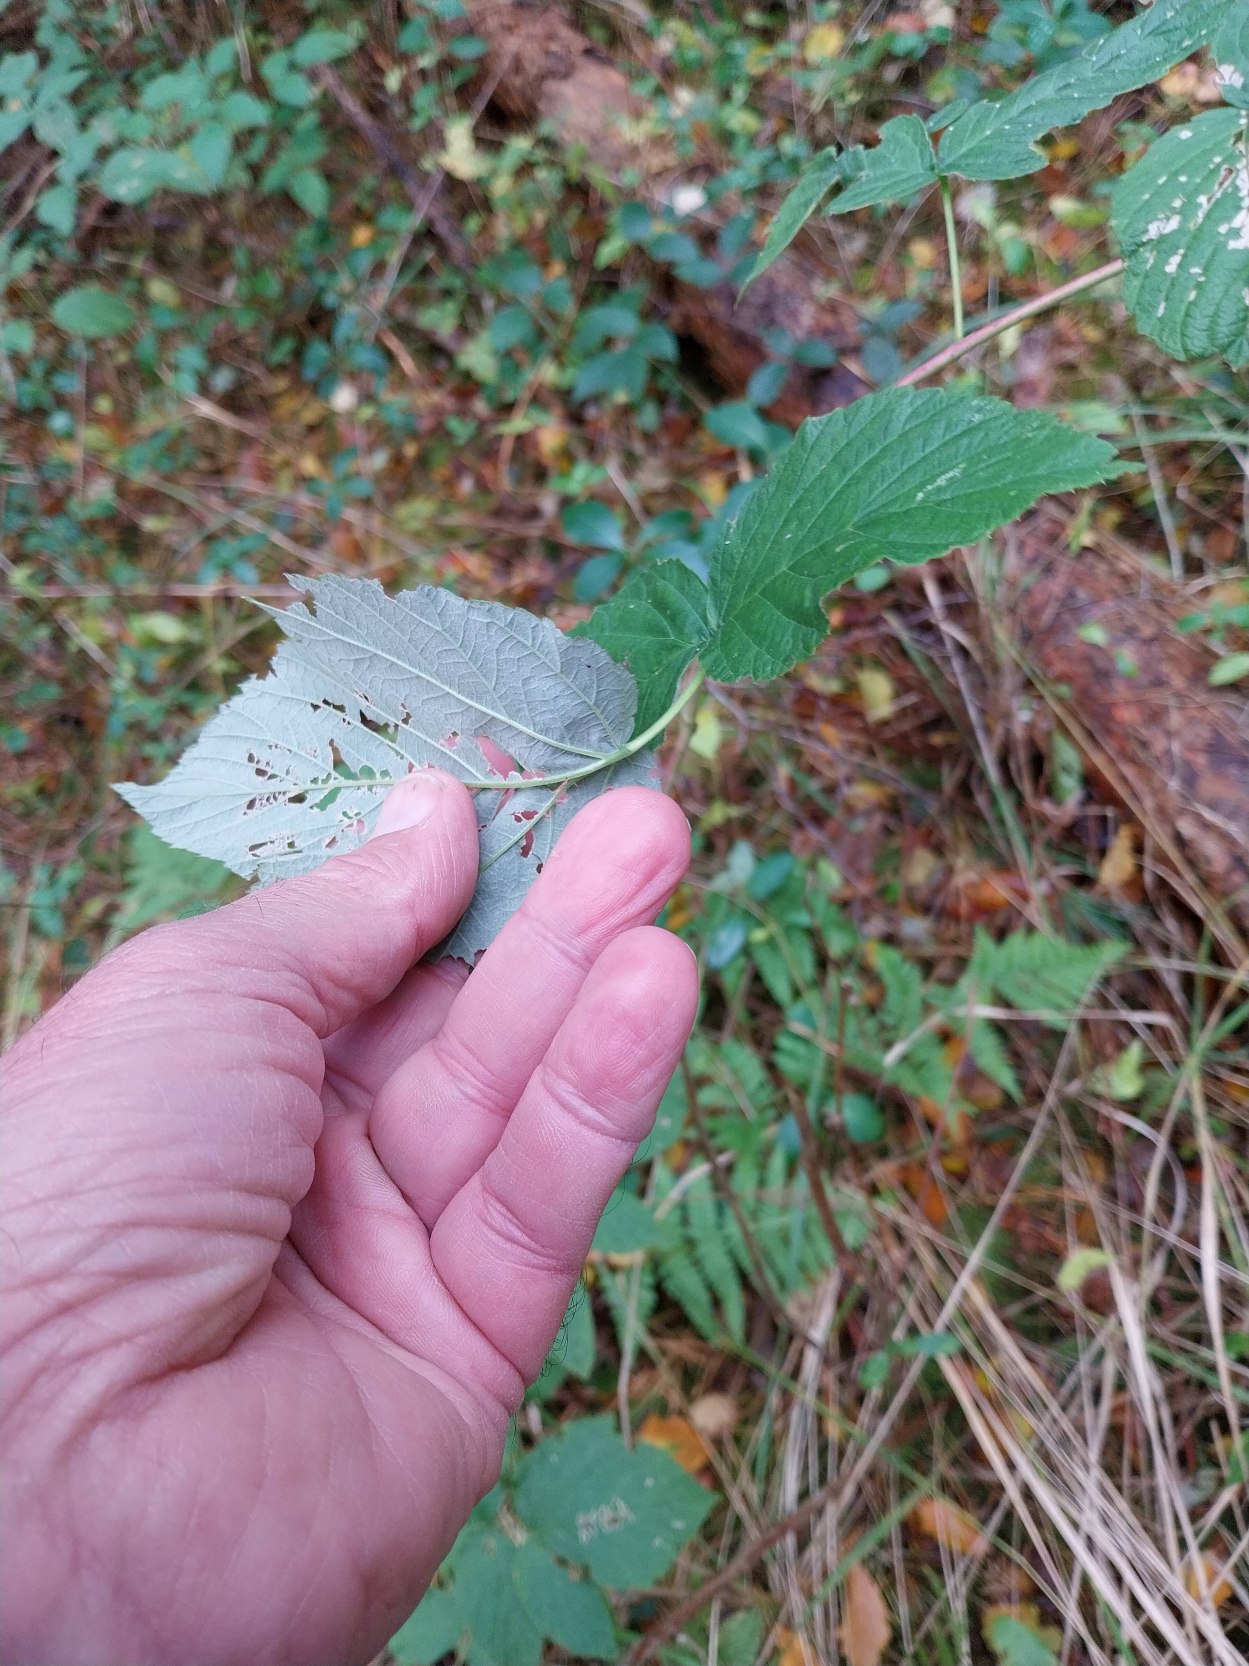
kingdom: Plantae
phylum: Tracheophyta
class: Magnoliopsida
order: Rosales
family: Rosaceae
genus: Rubus
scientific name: Rubus idaeus
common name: Hindbær
